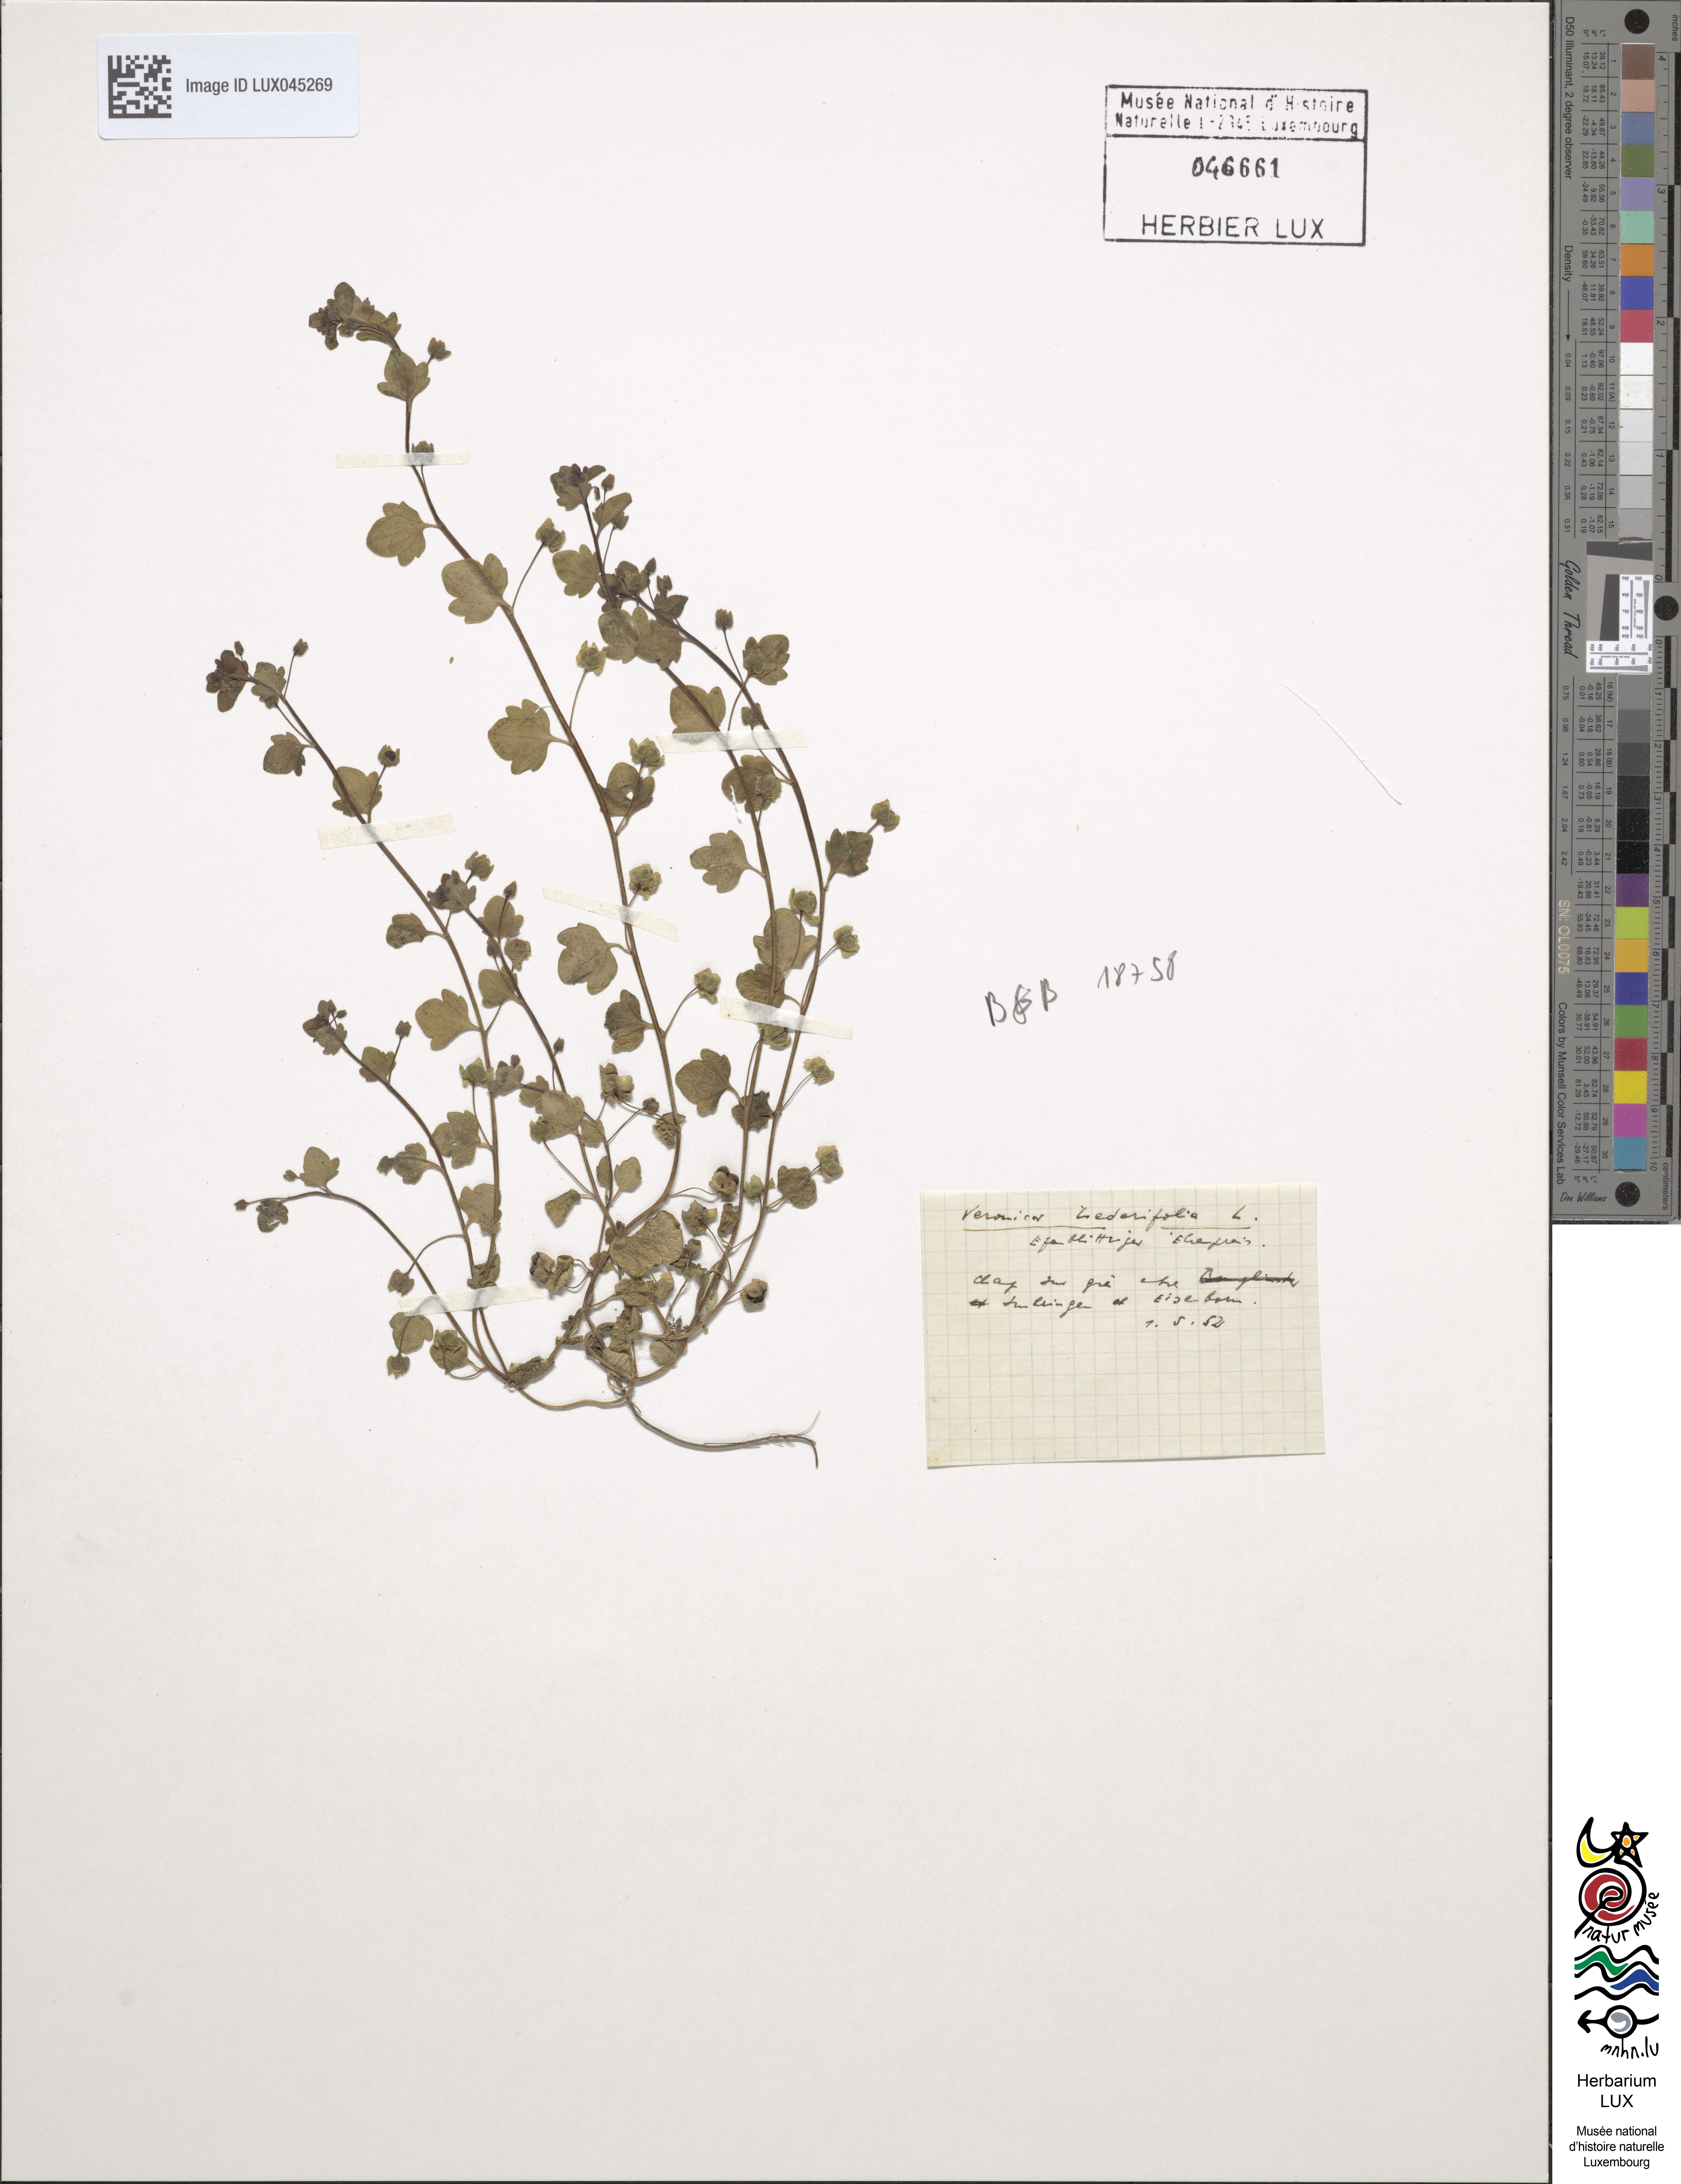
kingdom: Plantae
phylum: Tracheophyta
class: Magnoliopsida
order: Lamiales
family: Plantaginaceae
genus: Veronica
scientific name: Veronica hederifolia
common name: Ivy-leaved speedwell
